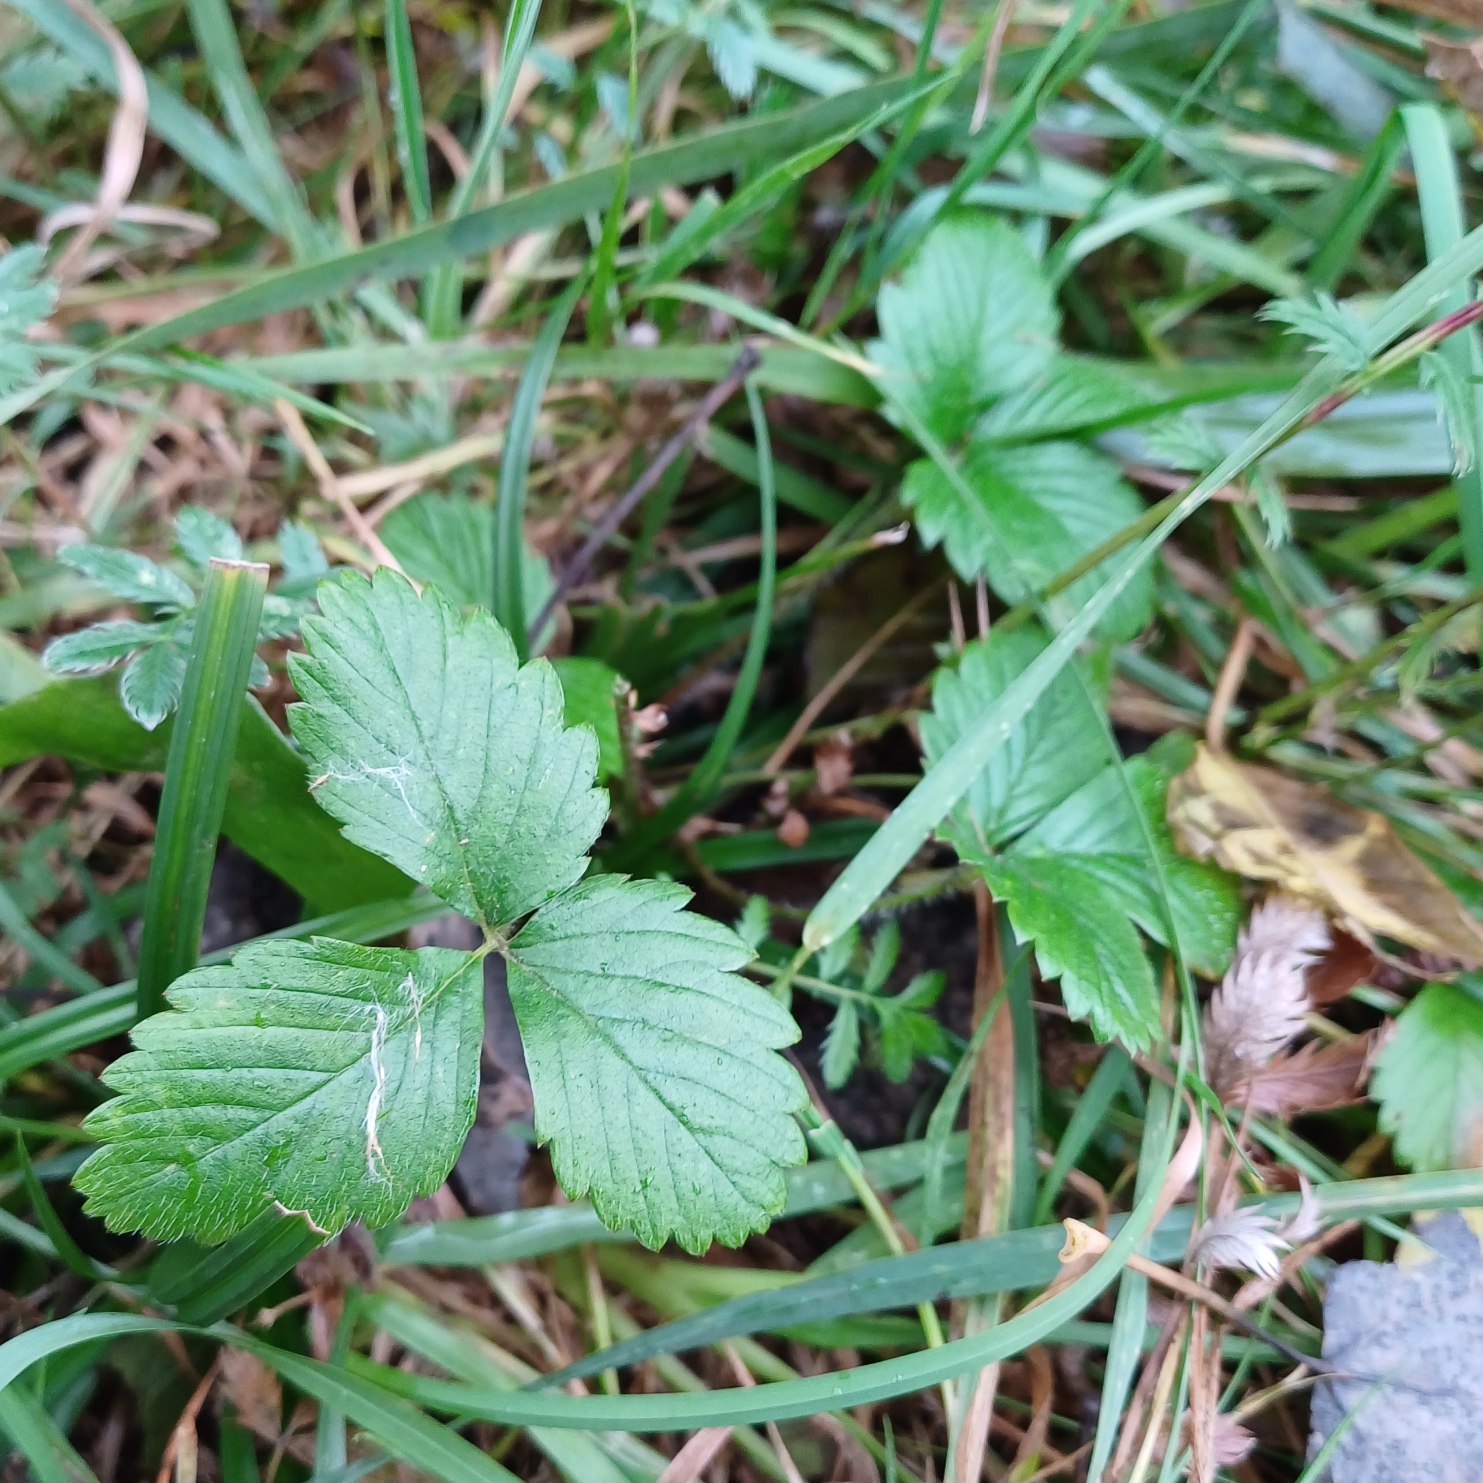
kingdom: Plantae
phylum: Tracheophyta
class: Magnoliopsida
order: Rosales
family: Rosaceae
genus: Fragaria
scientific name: Fragaria vesca
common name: Skov-jordbær
